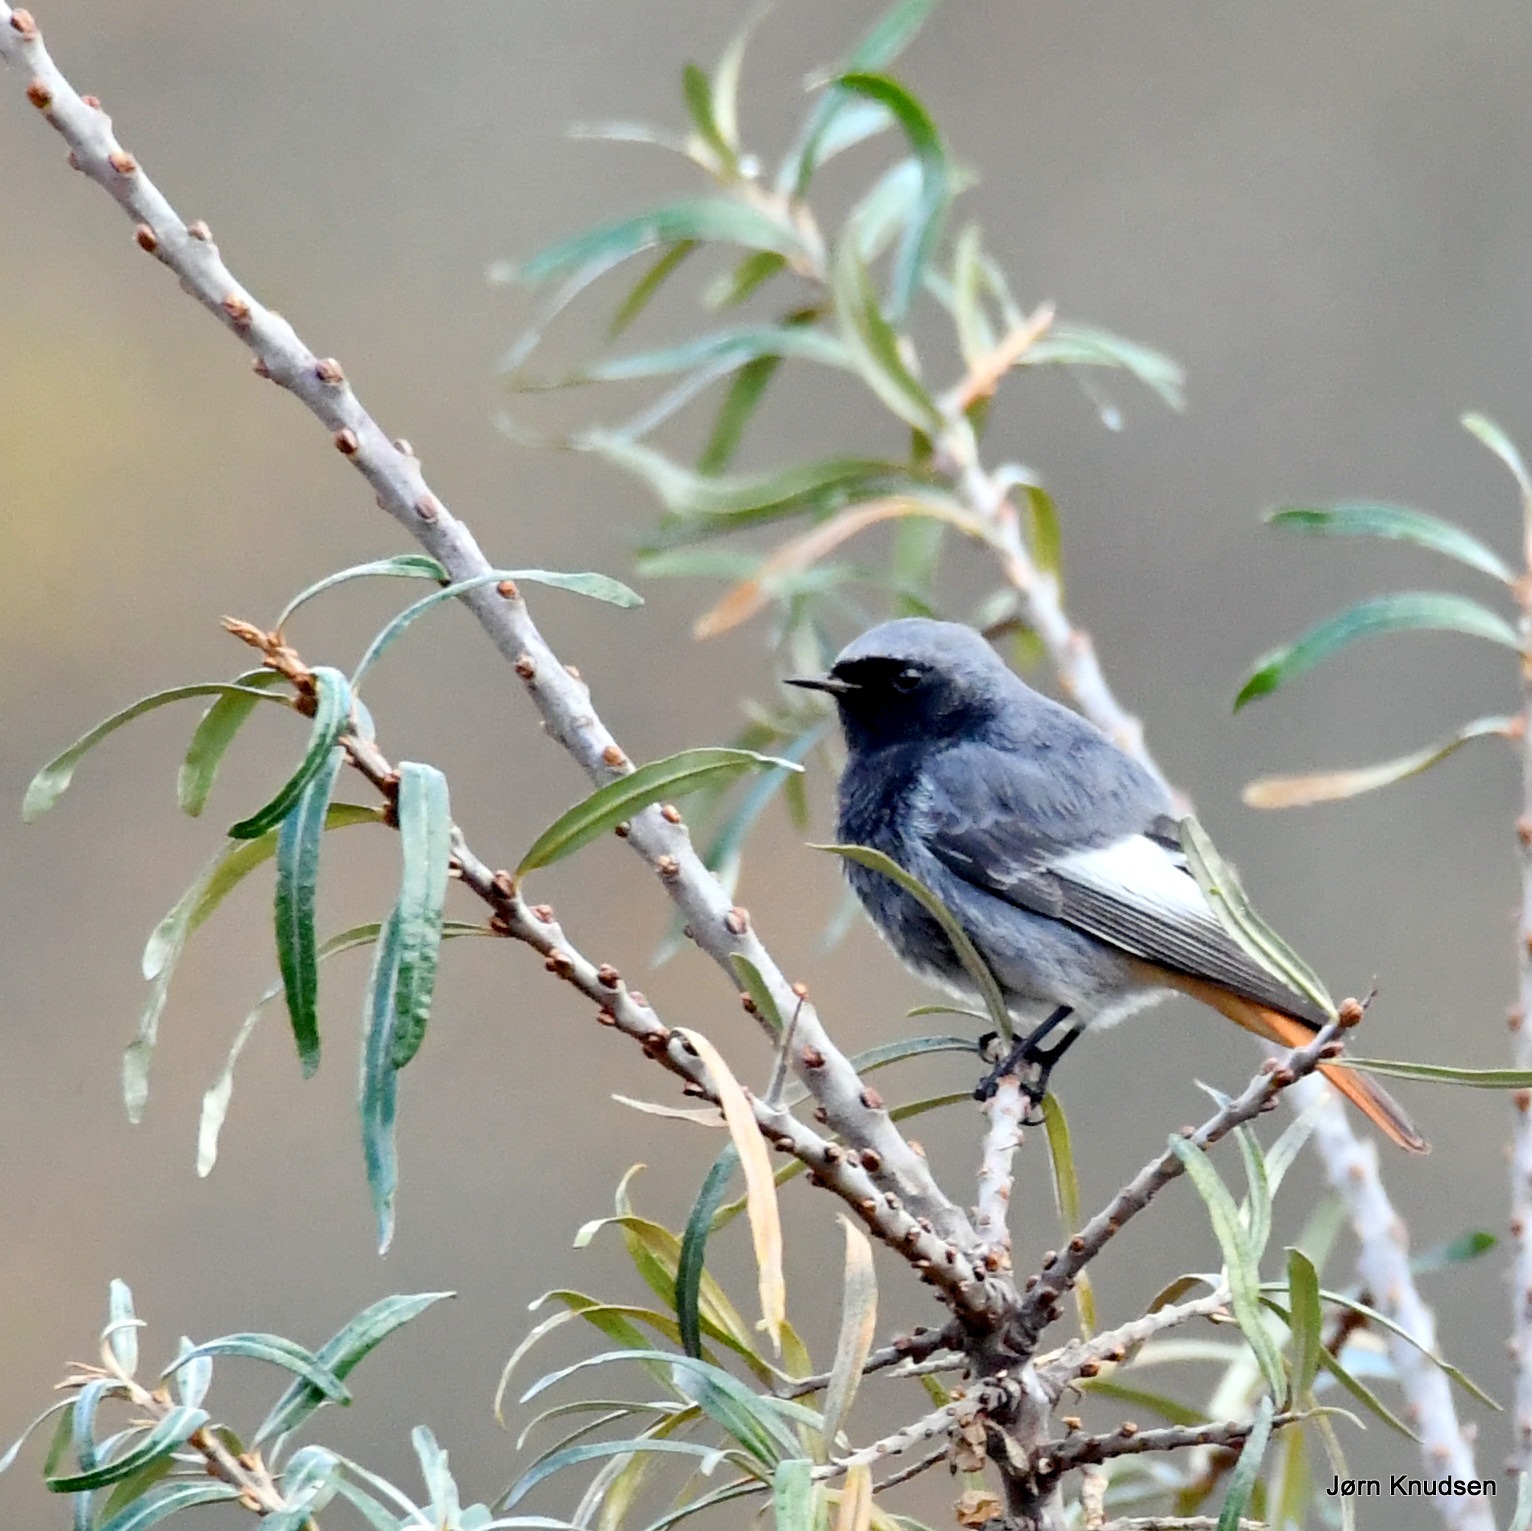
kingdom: Animalia
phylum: Chordata
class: Aves
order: Passeriformes
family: Muscicapidae
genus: Phoenicurus
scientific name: Phoenicurus ochruros
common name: Husrødstjert
